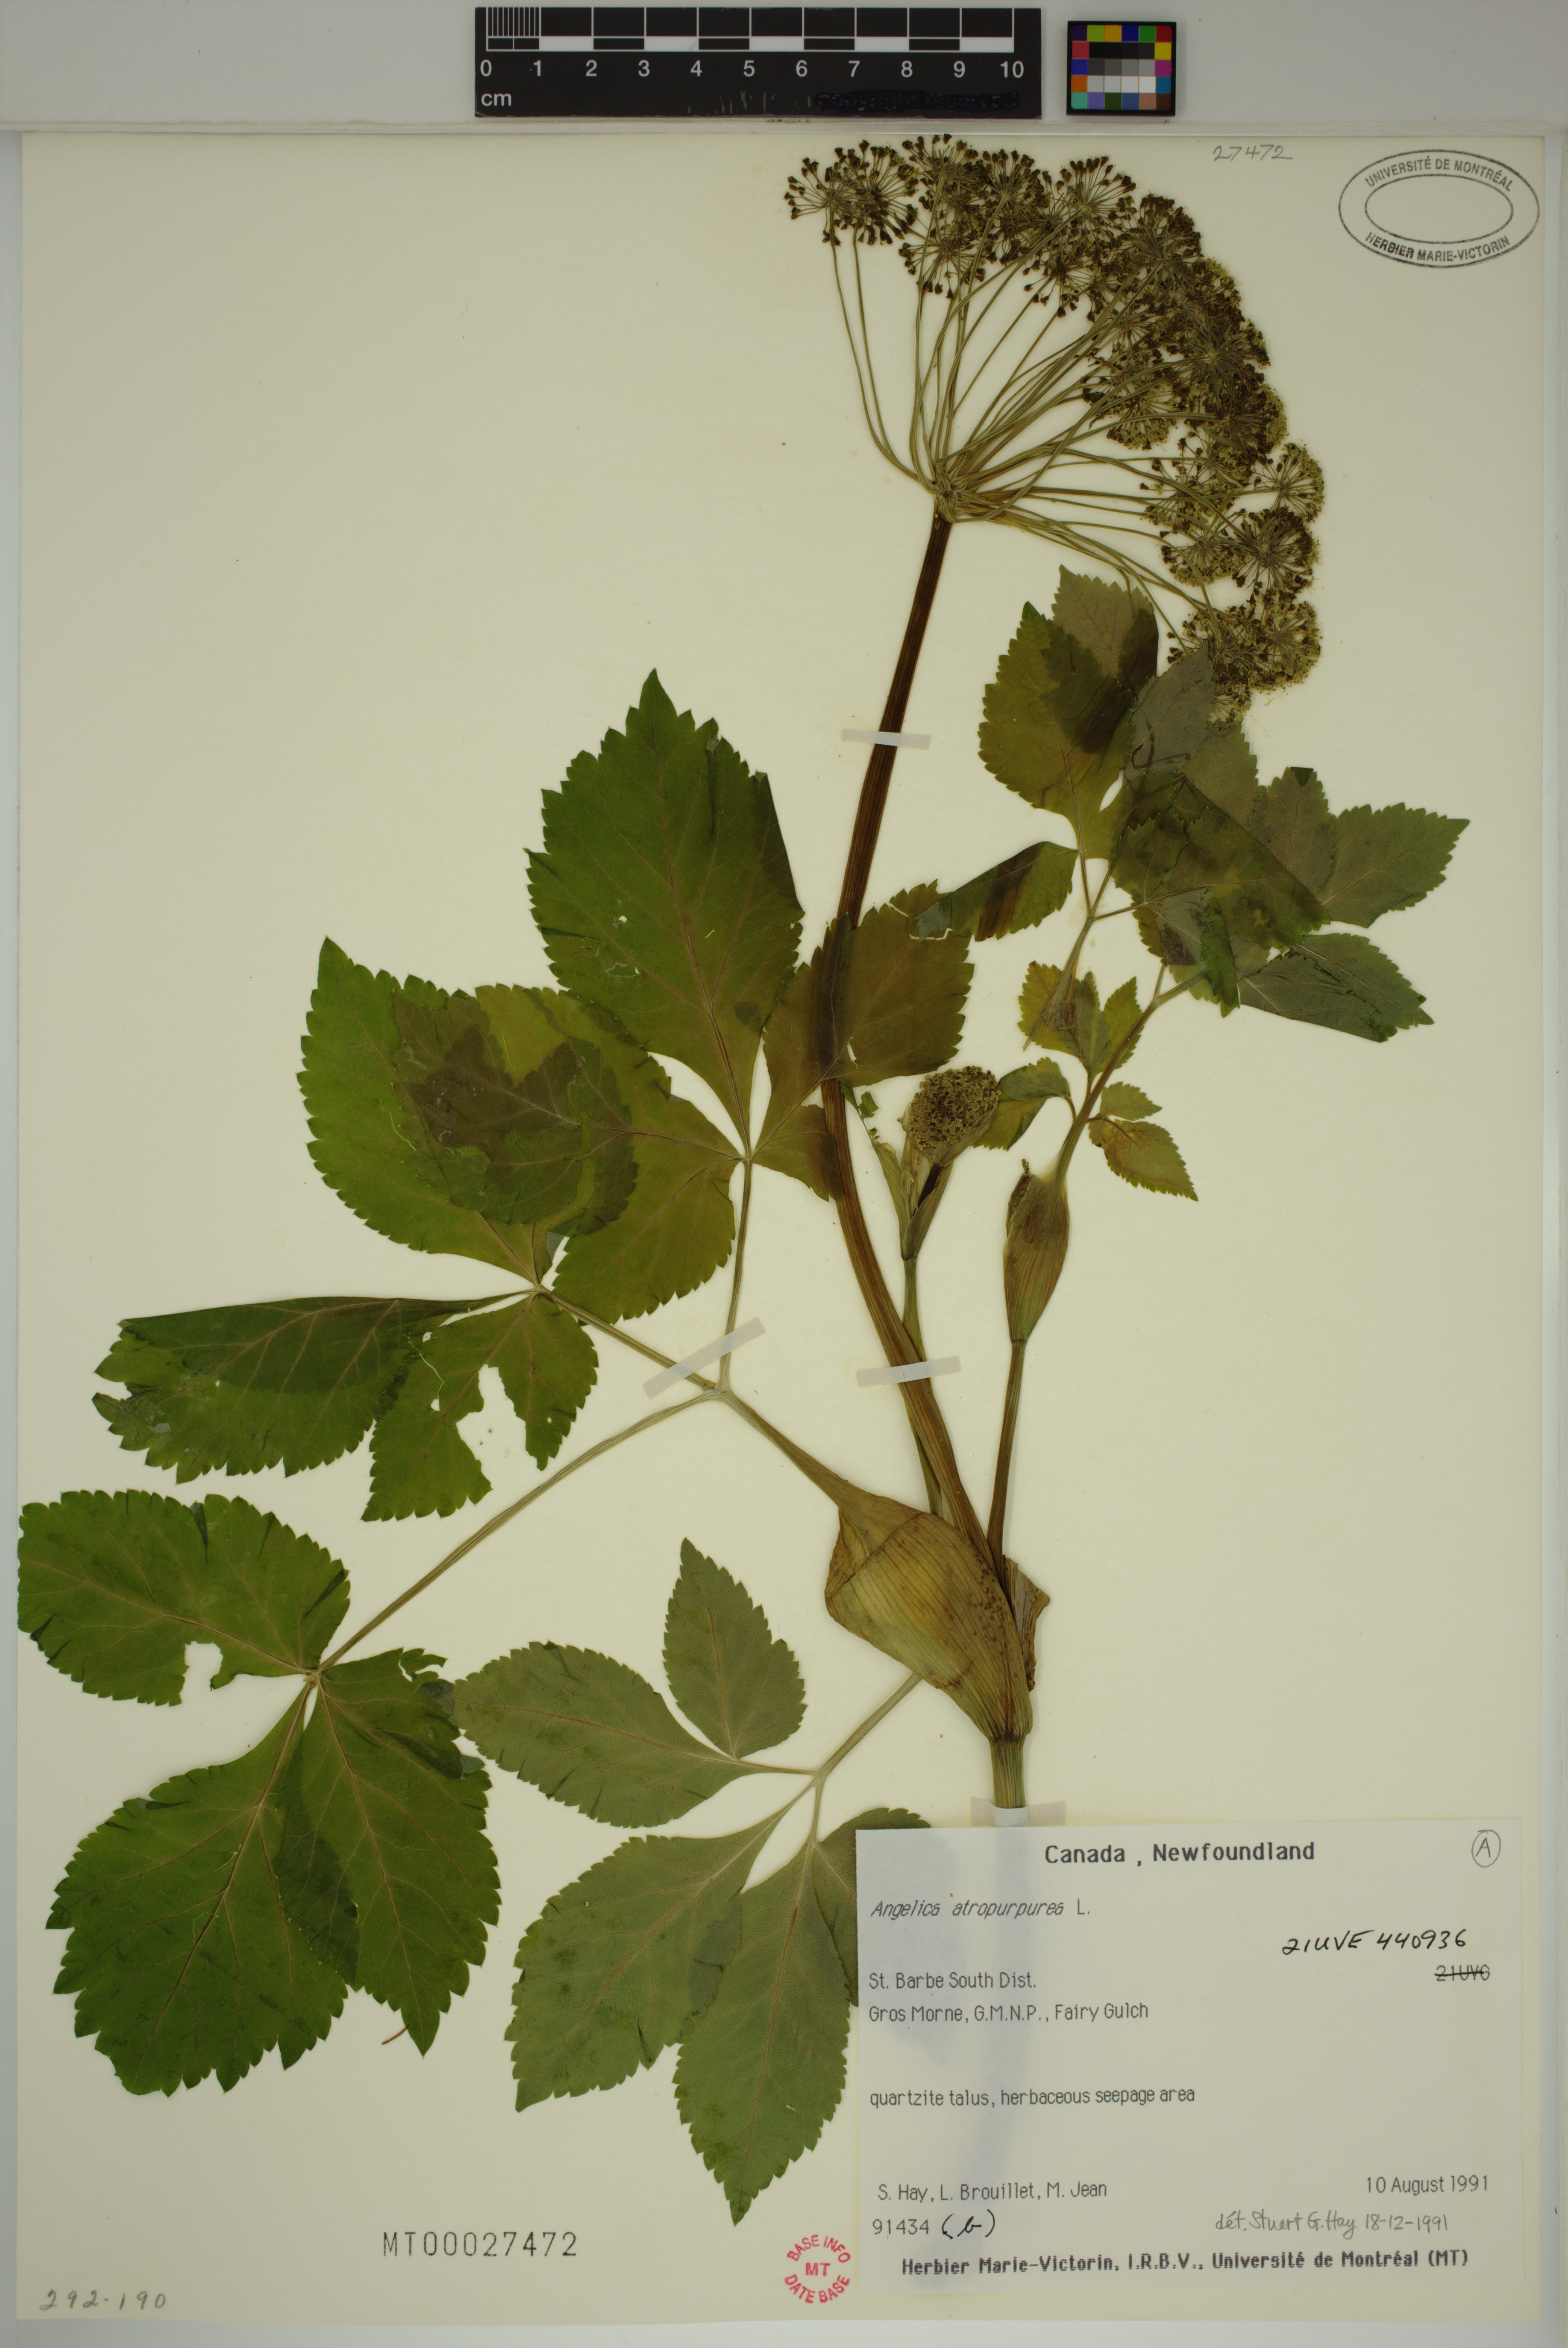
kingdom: Plantae
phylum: Tracheophyta
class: Magnoliopsida
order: Apiales
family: Apiaceae
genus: Angelica
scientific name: Angelica atropurpurea
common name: Great angelica
